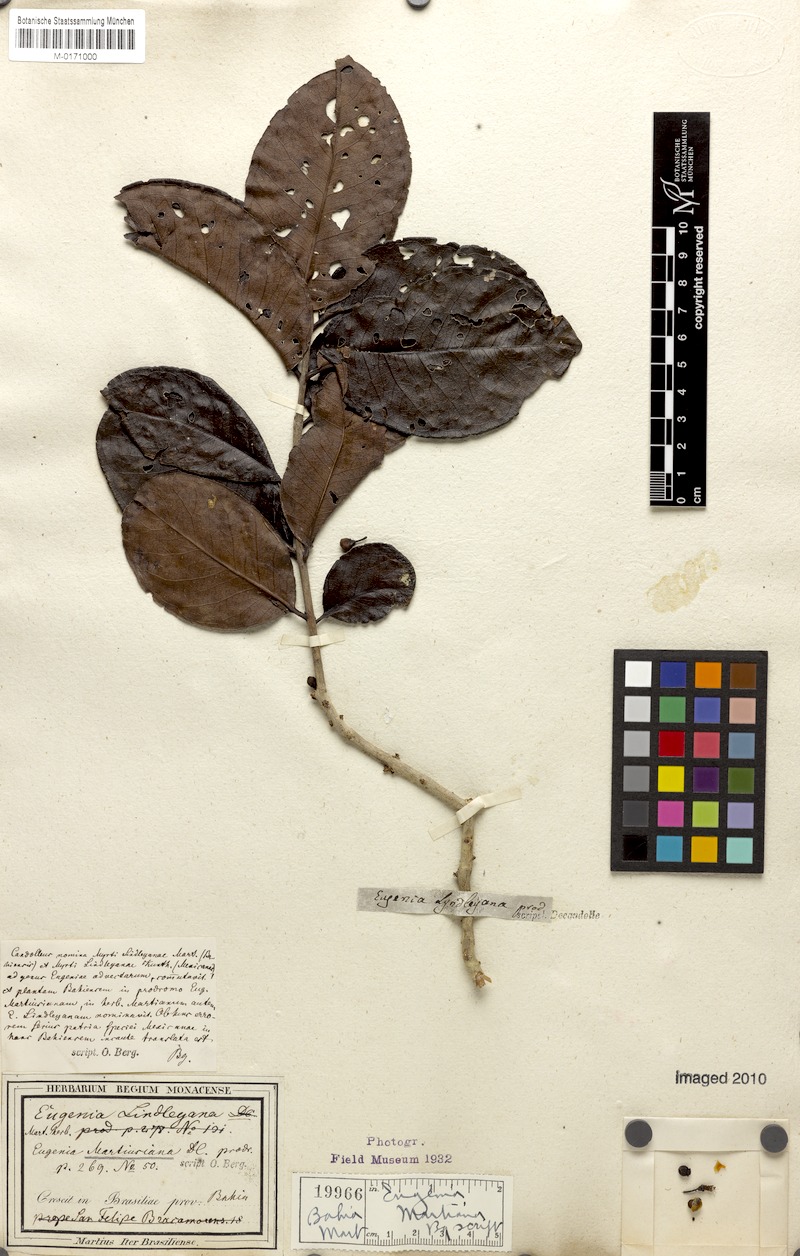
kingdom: Plantae
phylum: Tracheophyta
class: Magnoliopsida
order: Myrtales
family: Myrtaceae
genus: Eugenia
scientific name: Eugenia stictopetala
